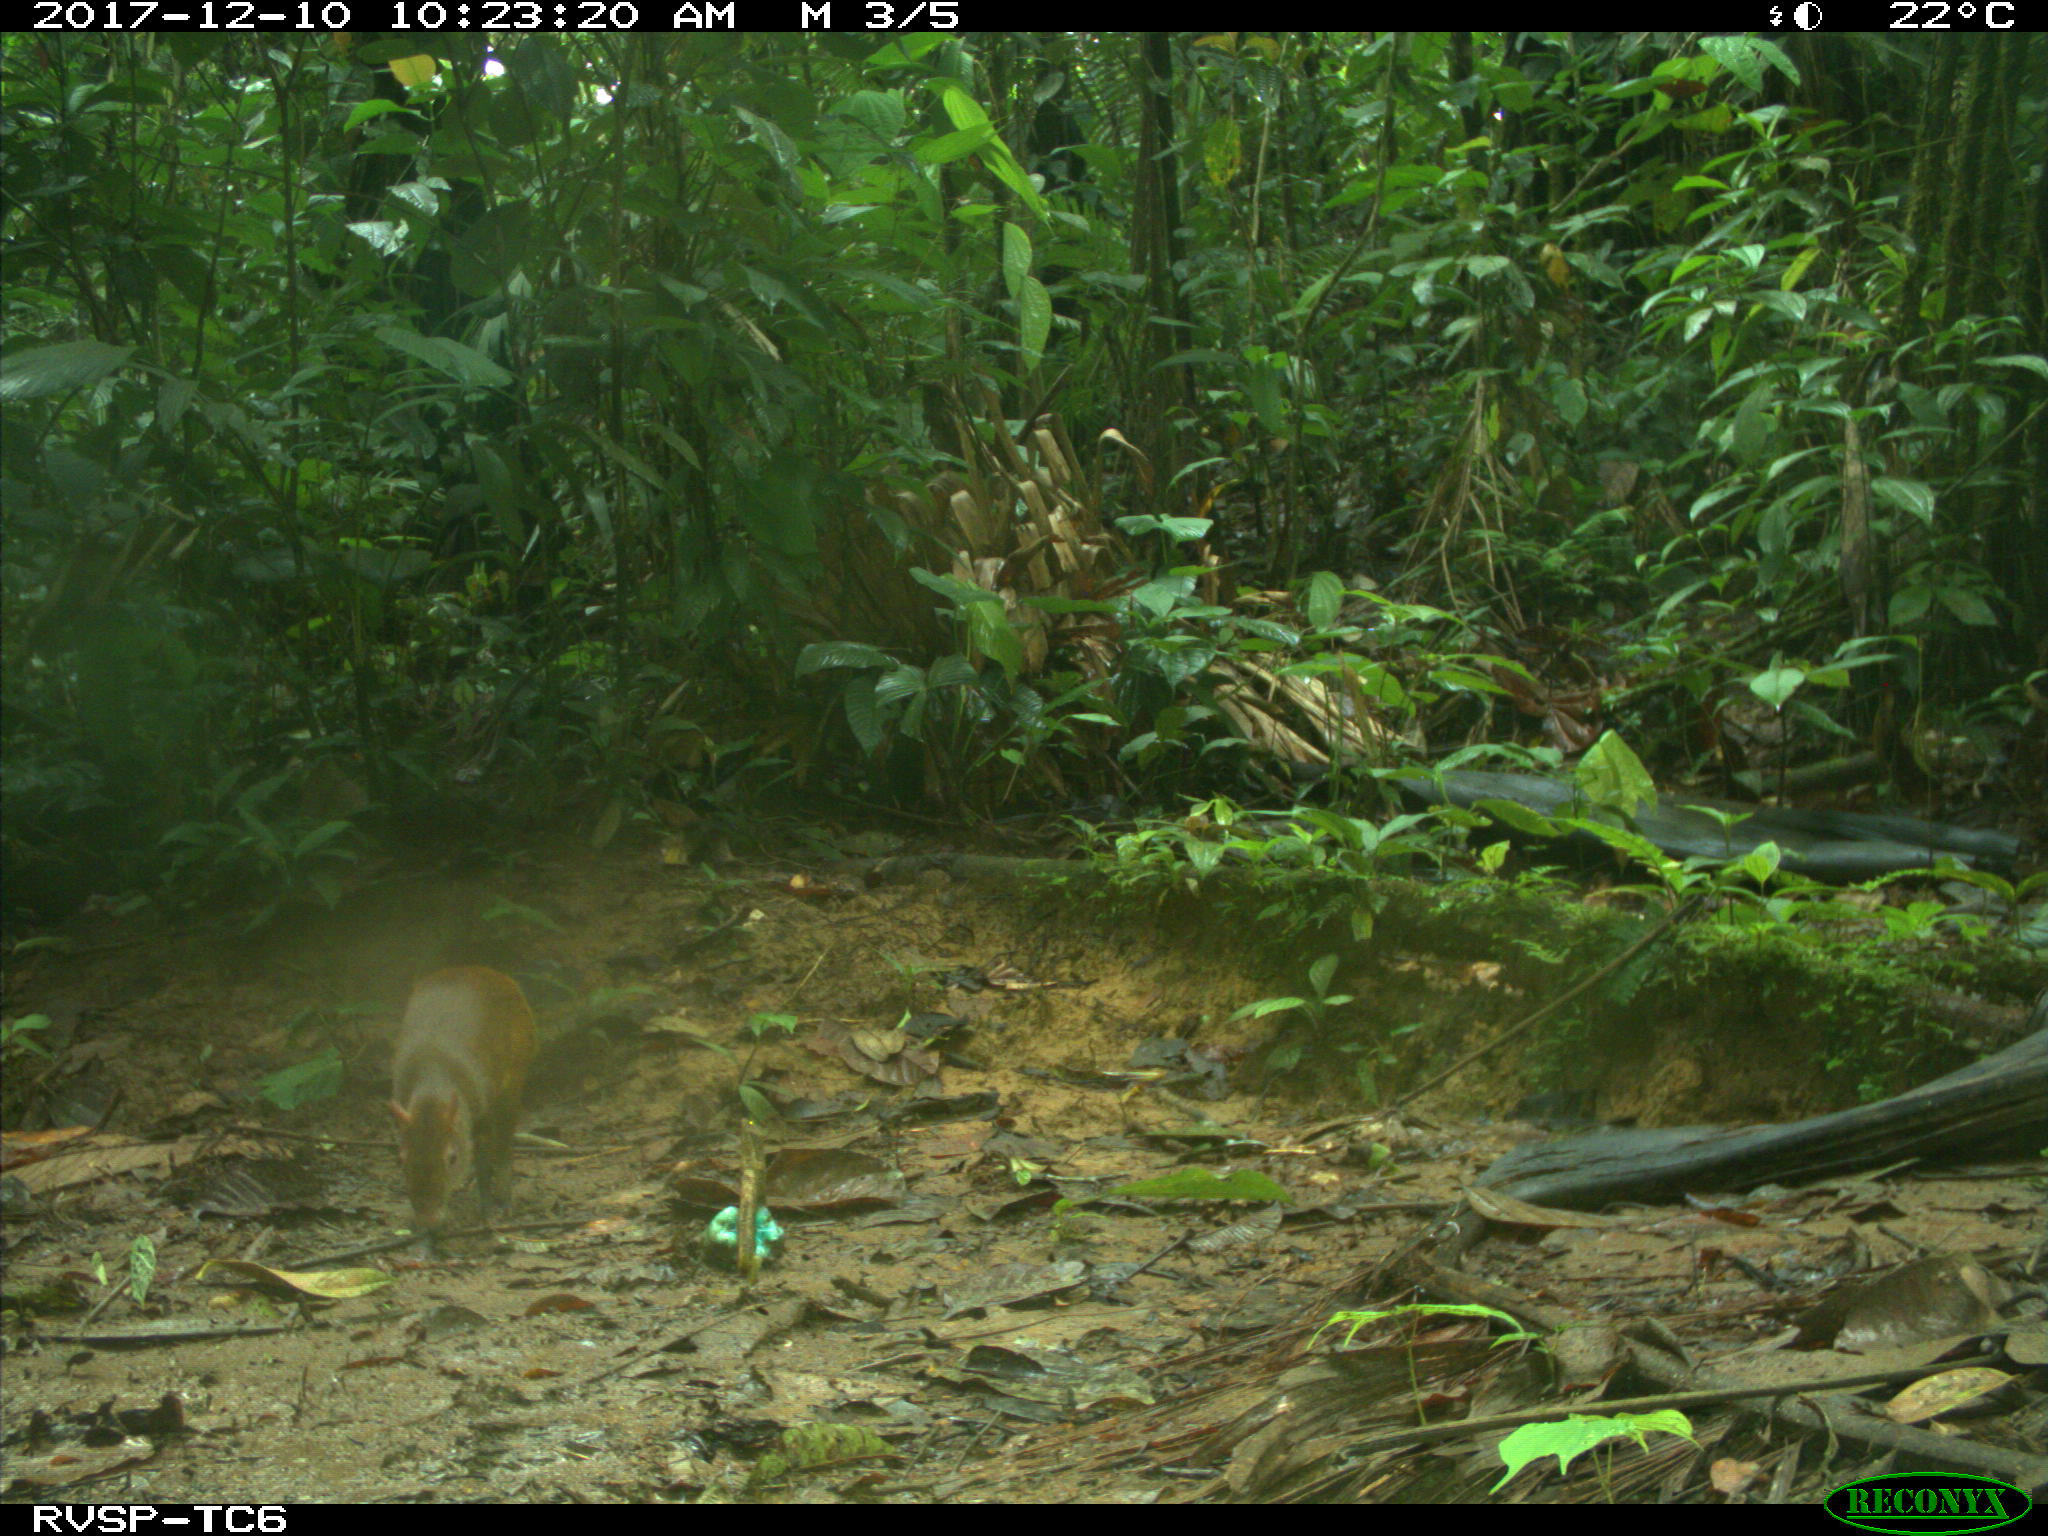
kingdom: Animalia
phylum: Chordata
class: Mammalia
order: Rodentia
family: Dasyproctidae
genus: Dasyprocta
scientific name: Dasyprocta punctata
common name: Central american agouti
